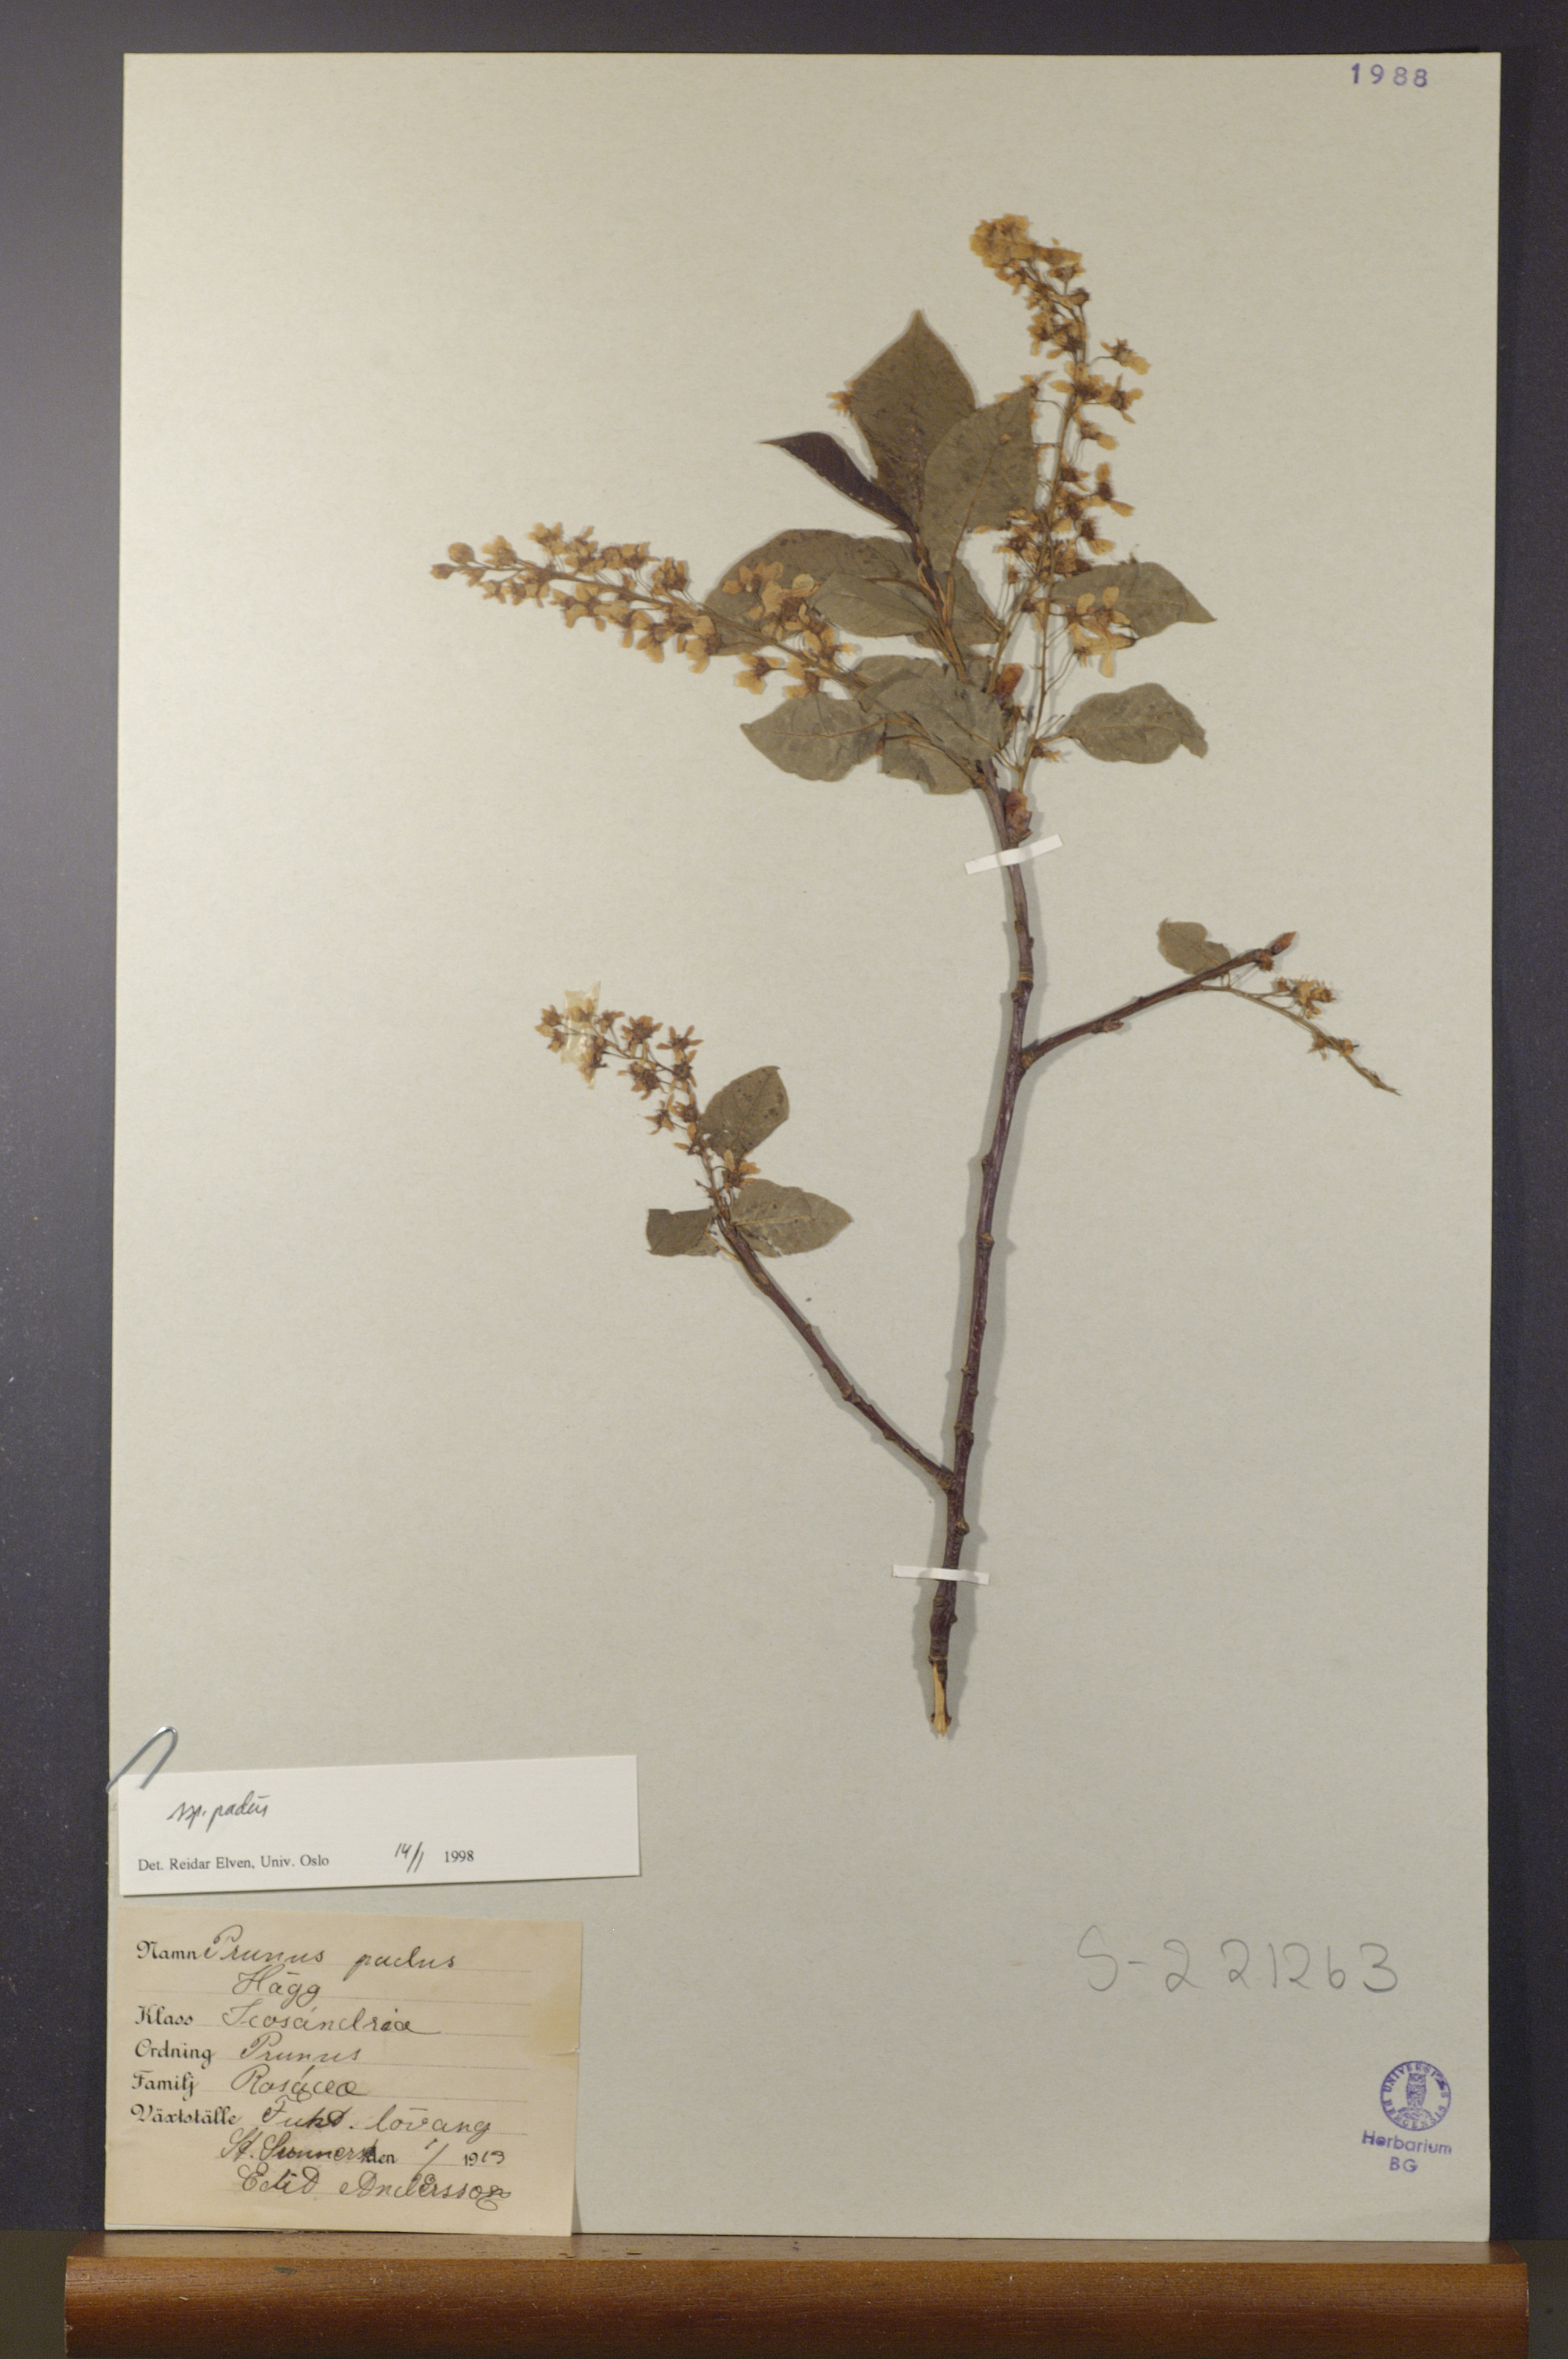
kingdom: Plantae
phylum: Tracheophyta
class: Magnoliopsida
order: Rosales
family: Rosaceae
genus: Prunus
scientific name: Prunus padus
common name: Bird cherry
